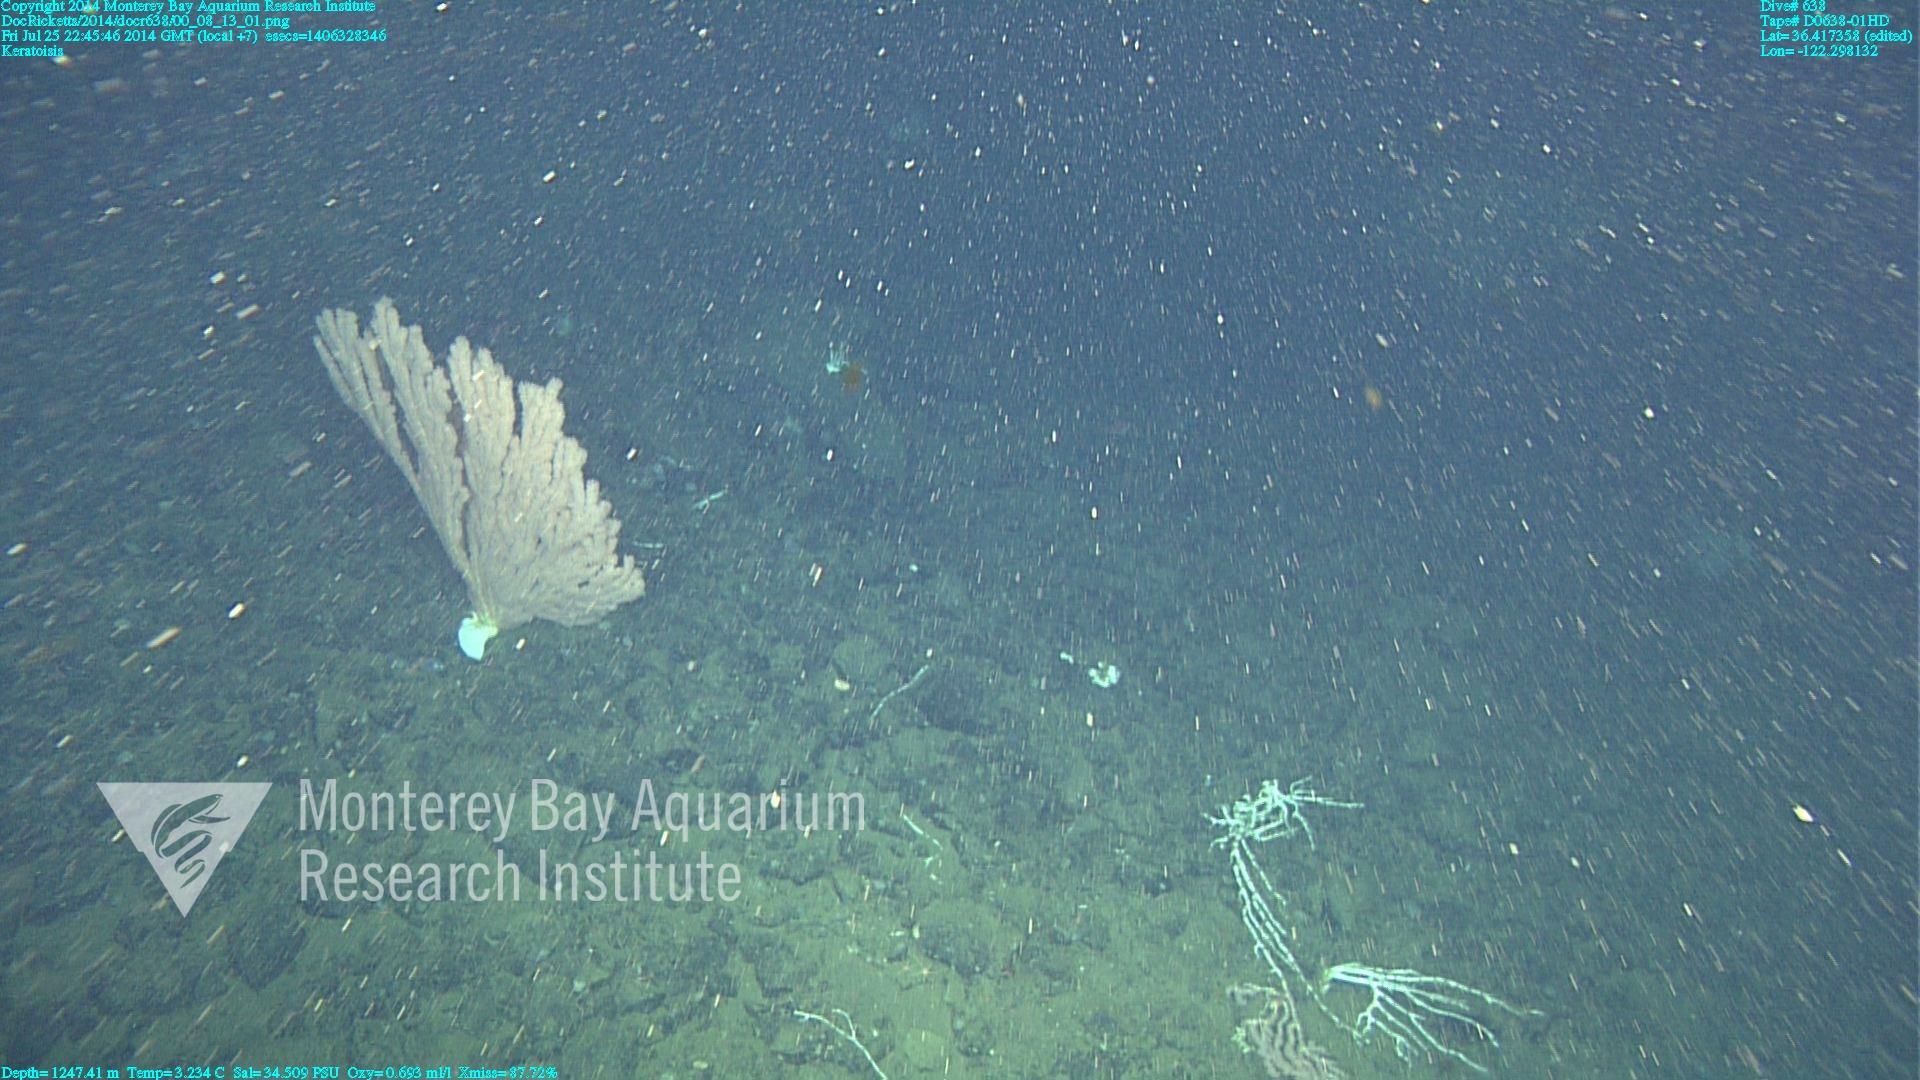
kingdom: Animalia
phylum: Cnidaria
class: Anthozoa
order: Scleralcyonacea
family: Keratoisididae
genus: Keratoisis
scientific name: Keratoisis
